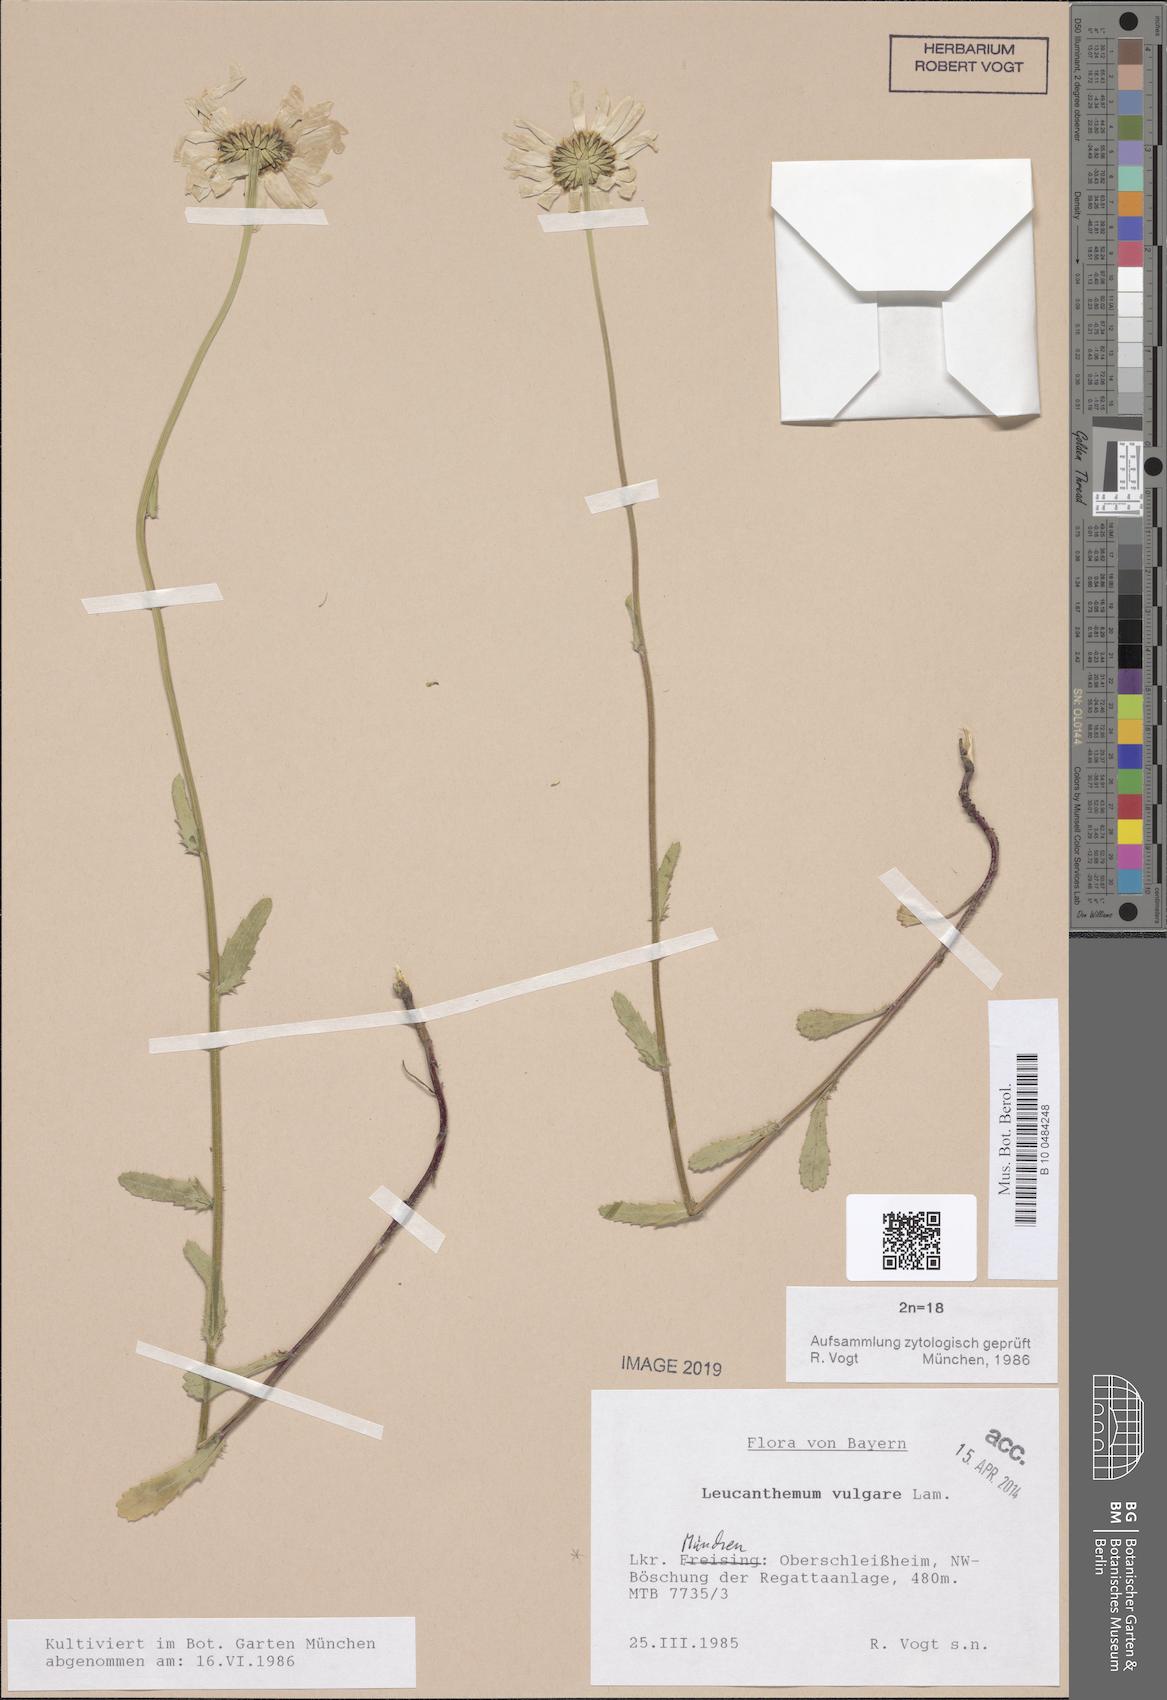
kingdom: Plantae
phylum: Tracheophyta
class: Magnoliopsida
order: Asterales
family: Asteraceae
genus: Leucanthemum
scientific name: Leucanthemum vulgare
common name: Oxeye daisy
